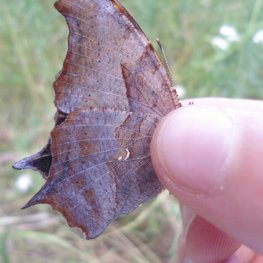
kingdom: Animalia
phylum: Arthropoda
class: Insecta
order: Lepidoptera
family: Nymphalidae
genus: Polygonia
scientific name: Polygonia interrogationis
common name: Question Mark
